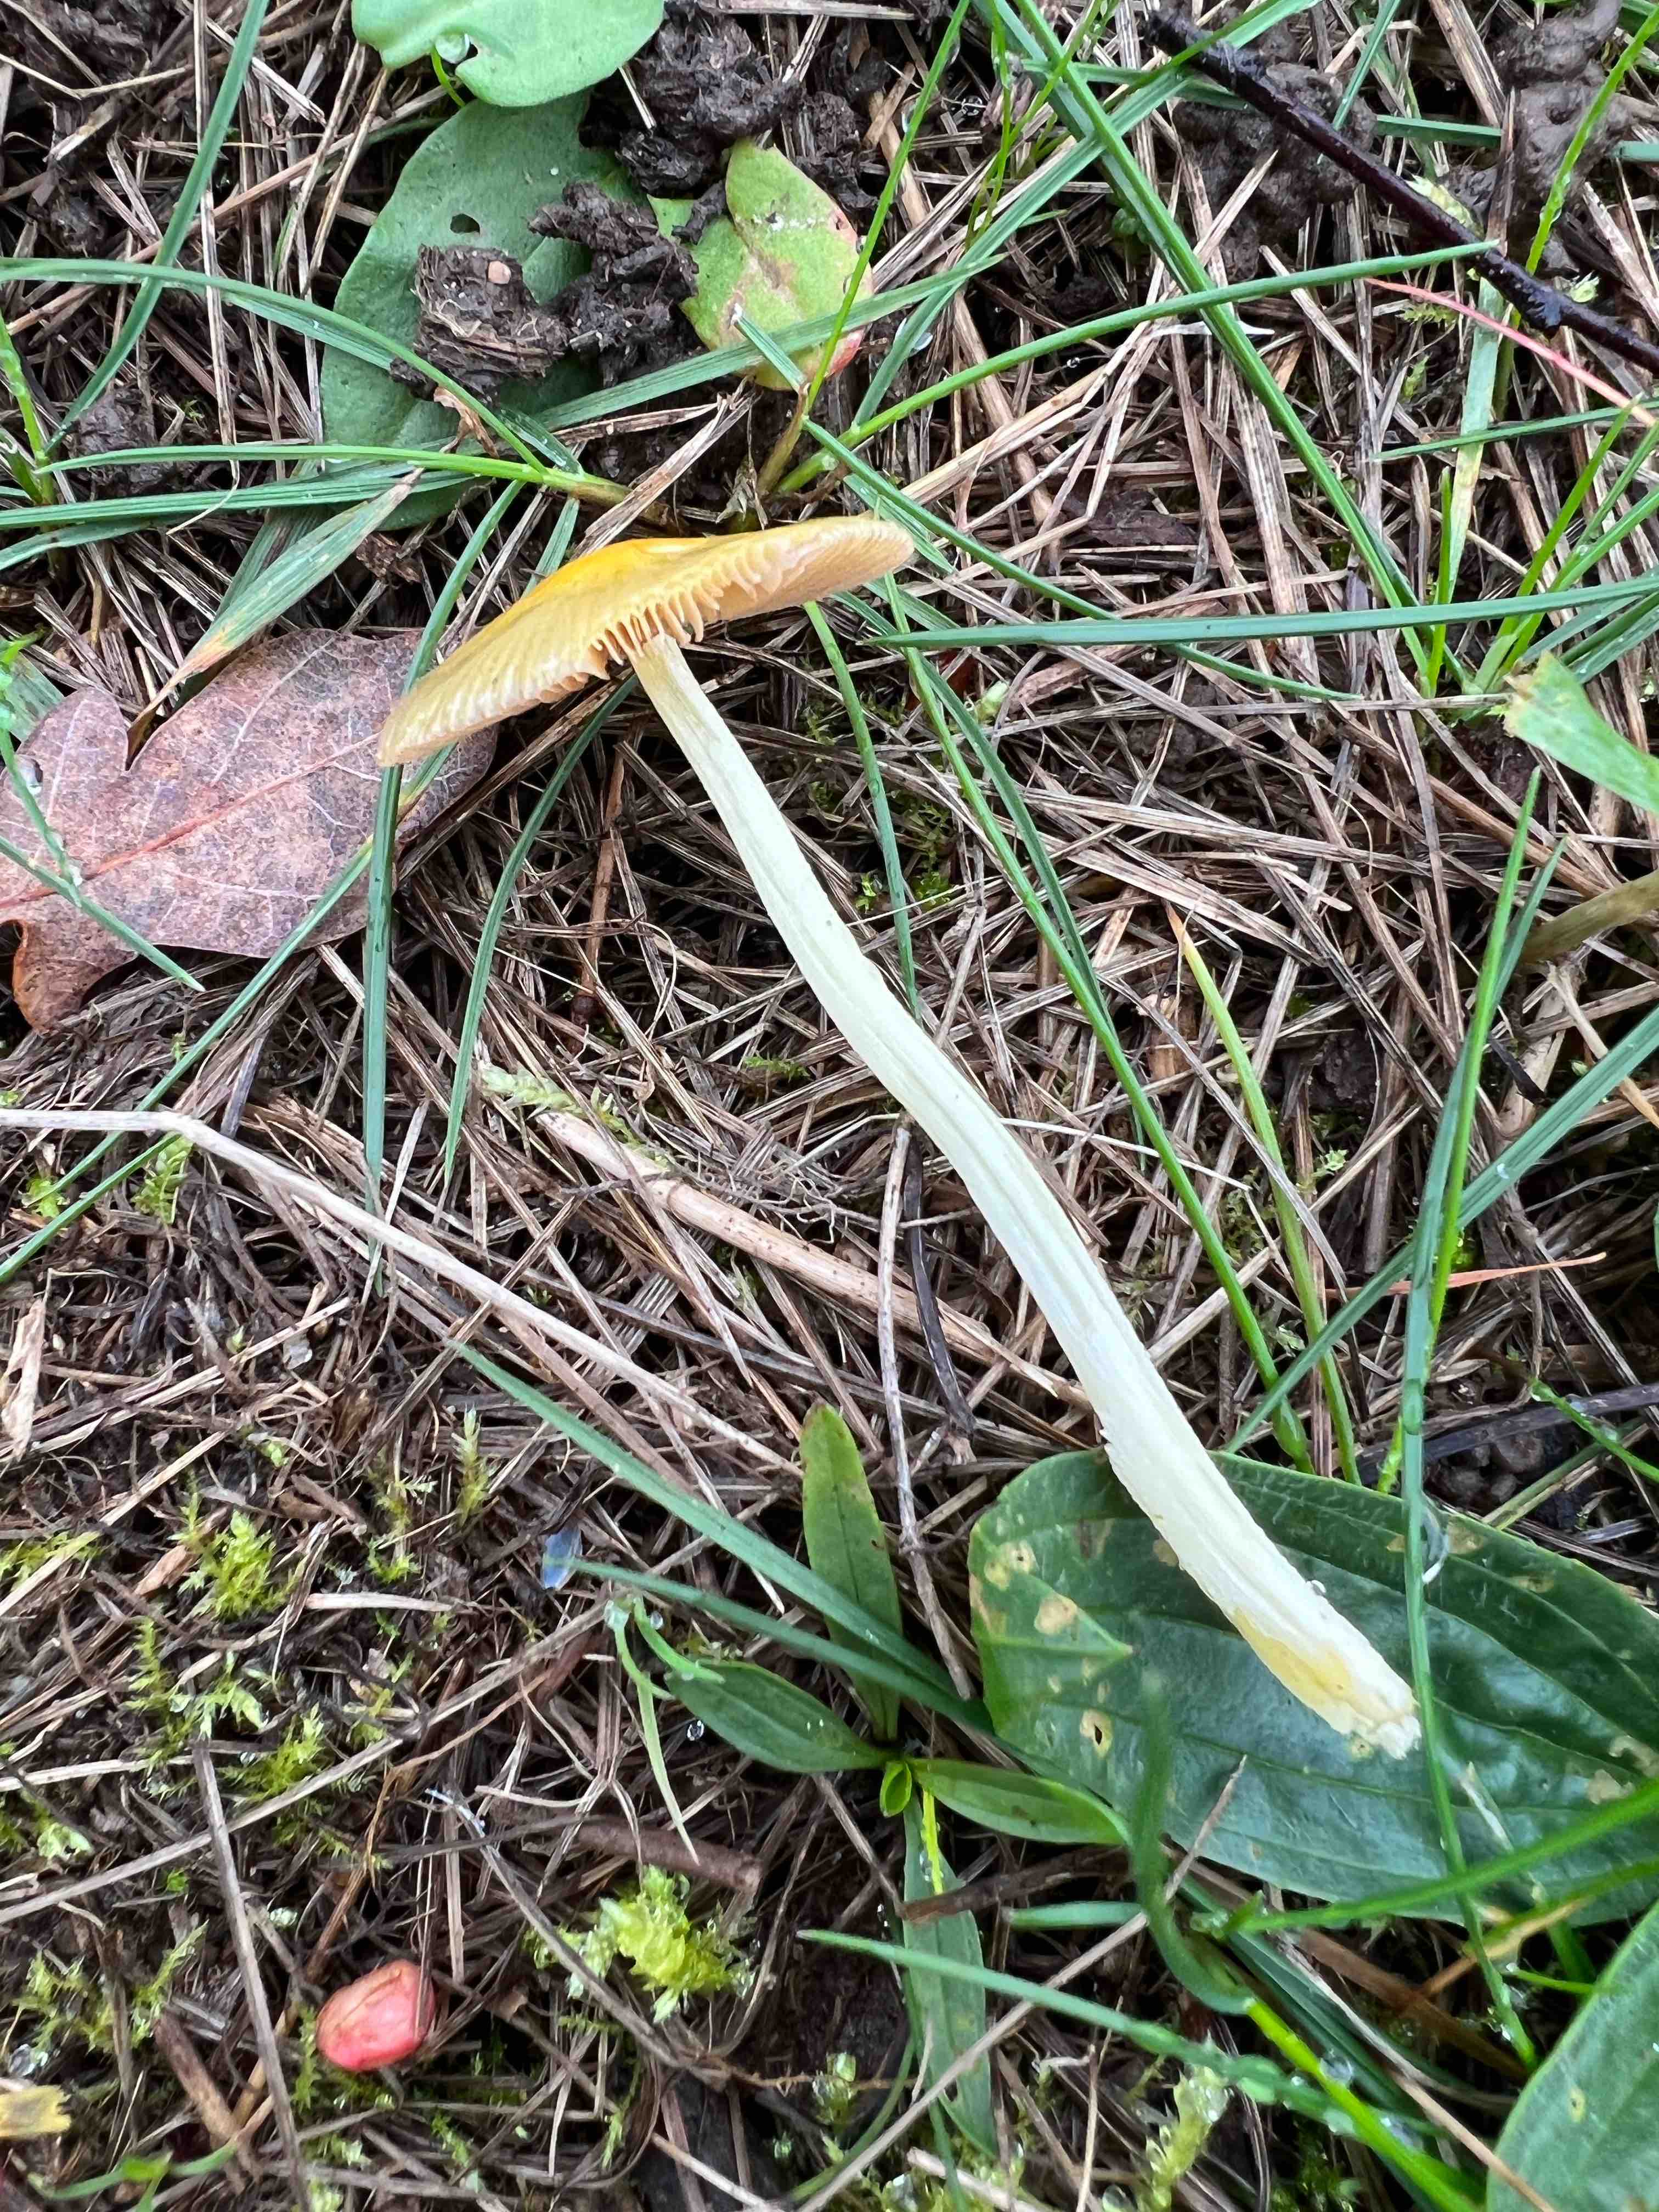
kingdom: Fungi
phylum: Basidiomycota
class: Agaricomycetes
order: Agaricales
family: Bolbitiaceae
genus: Bolbitius
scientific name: Bolbitius titubans
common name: almindelig gulhat
